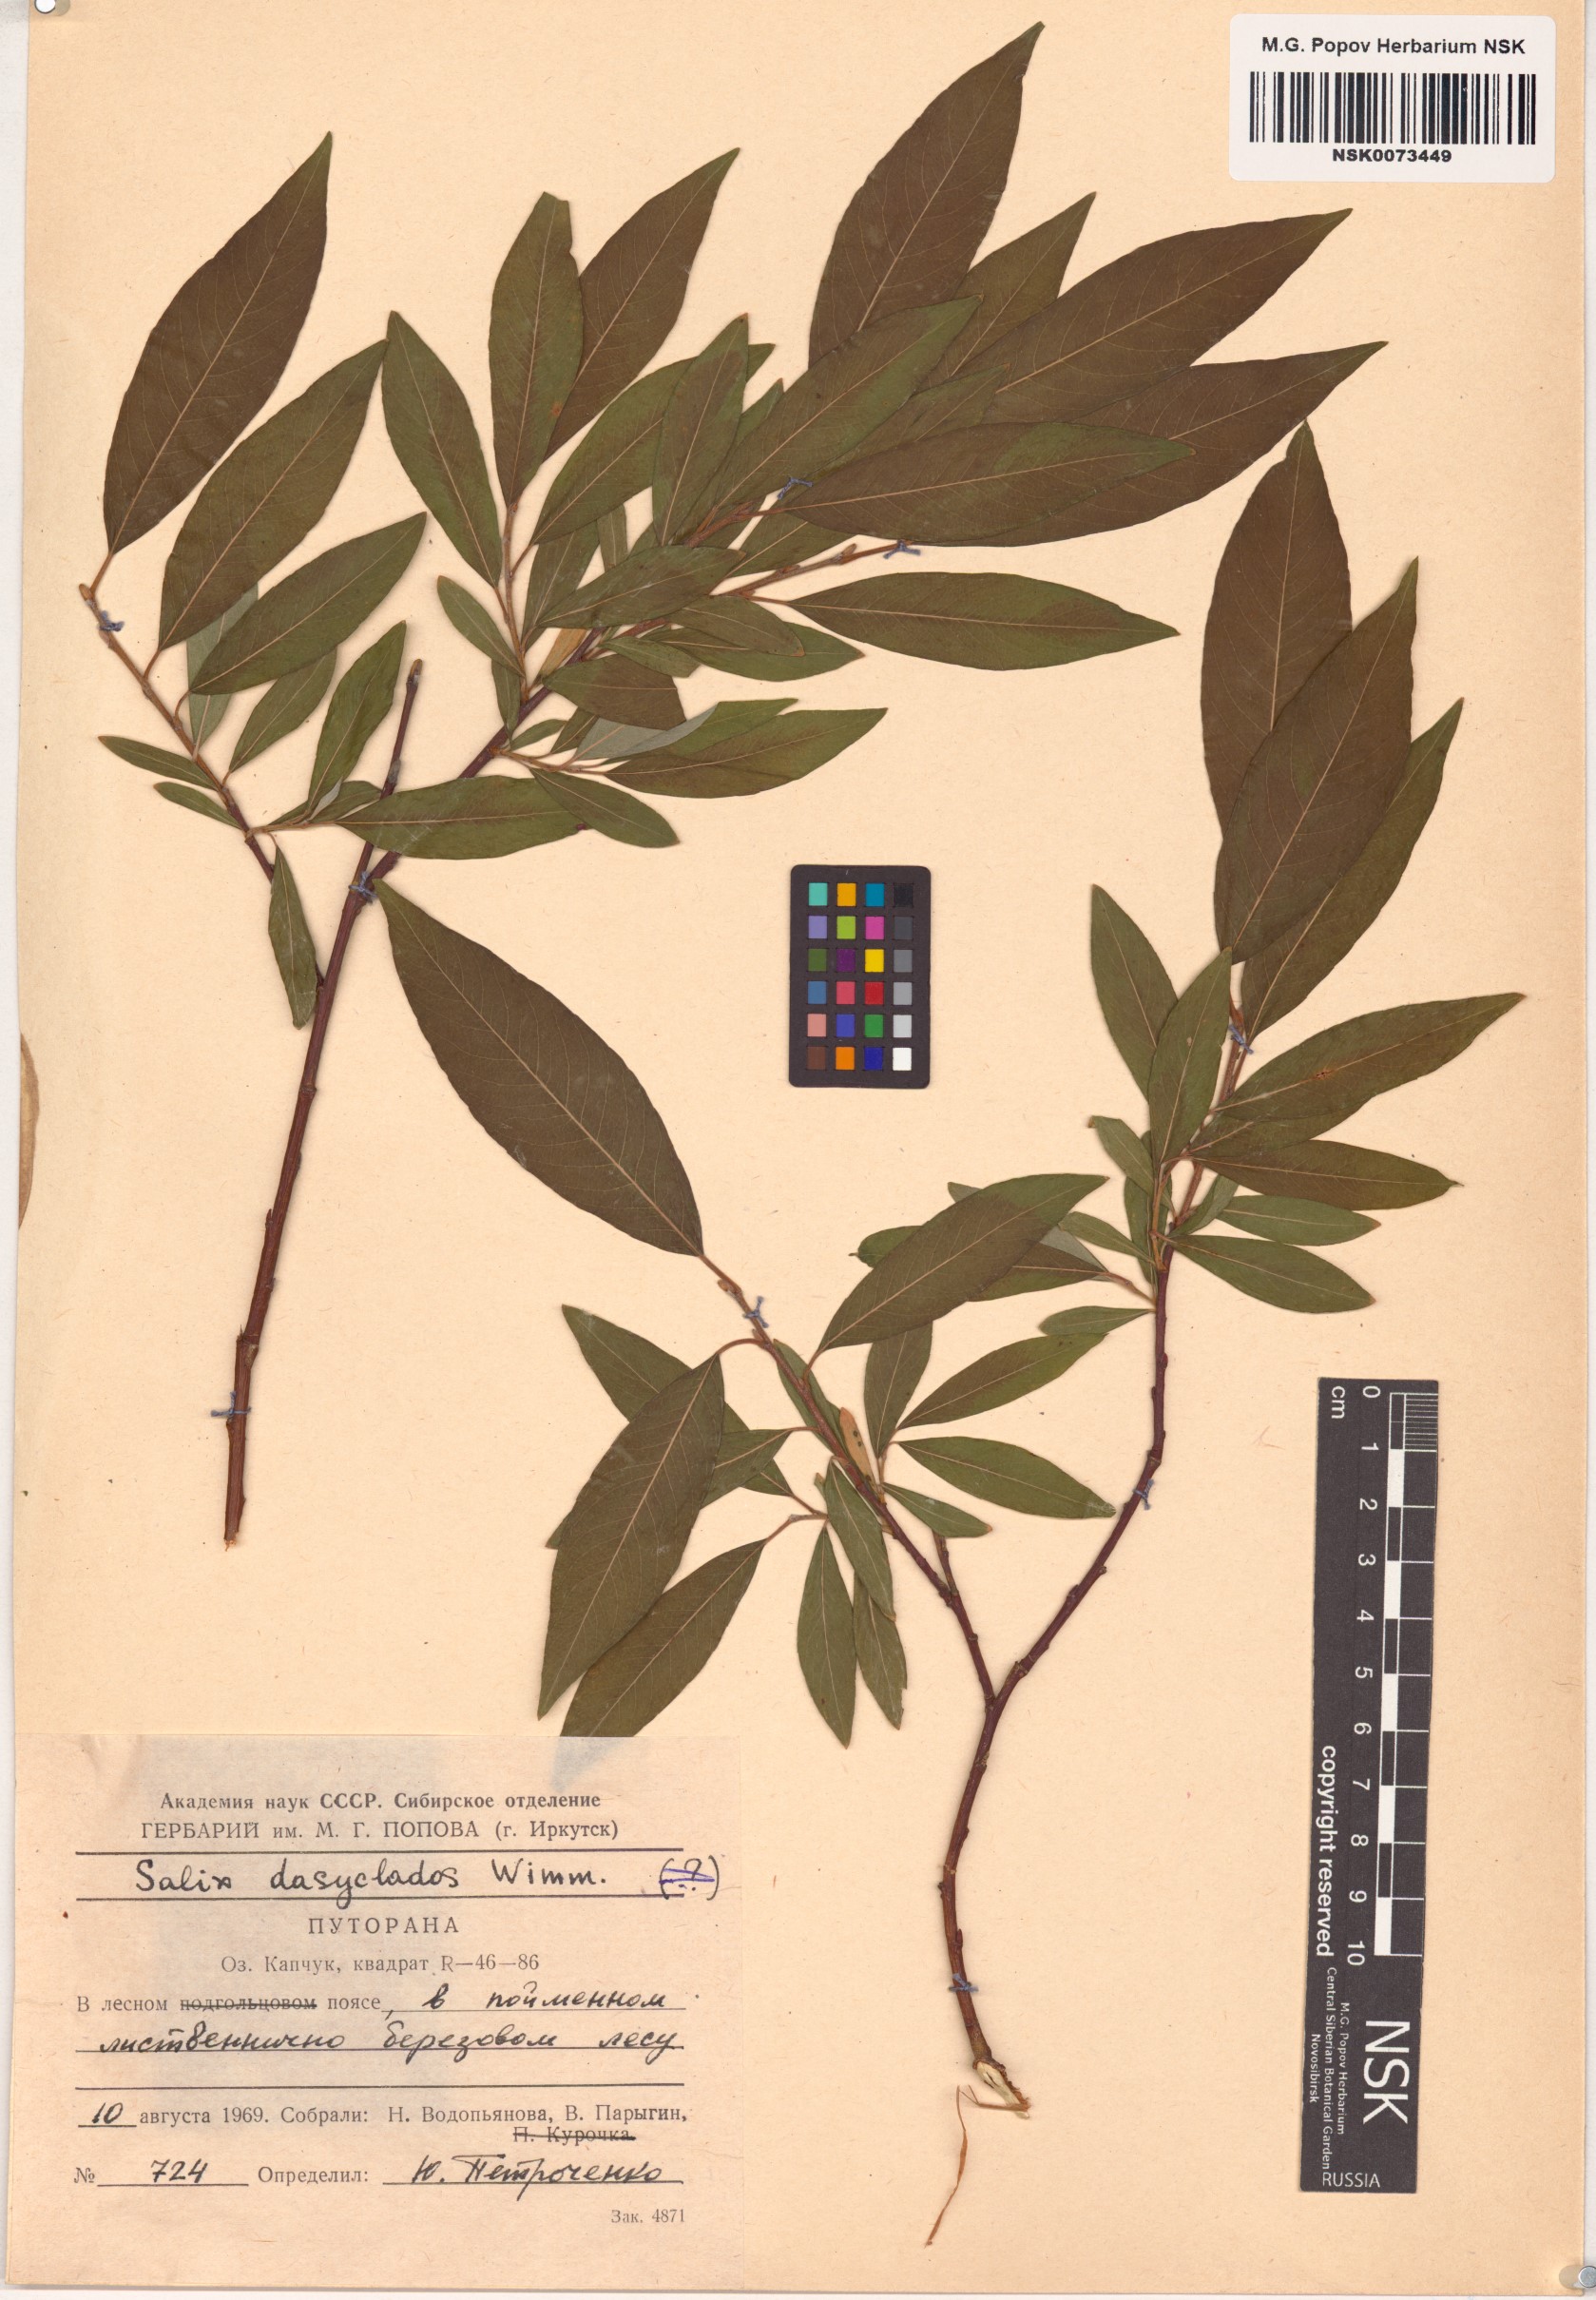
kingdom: Plantae
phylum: Tracheophyta
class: Magnoliopsida
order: Malpighiales
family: Salicaceae
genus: Salix
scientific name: Salix gmelinii
